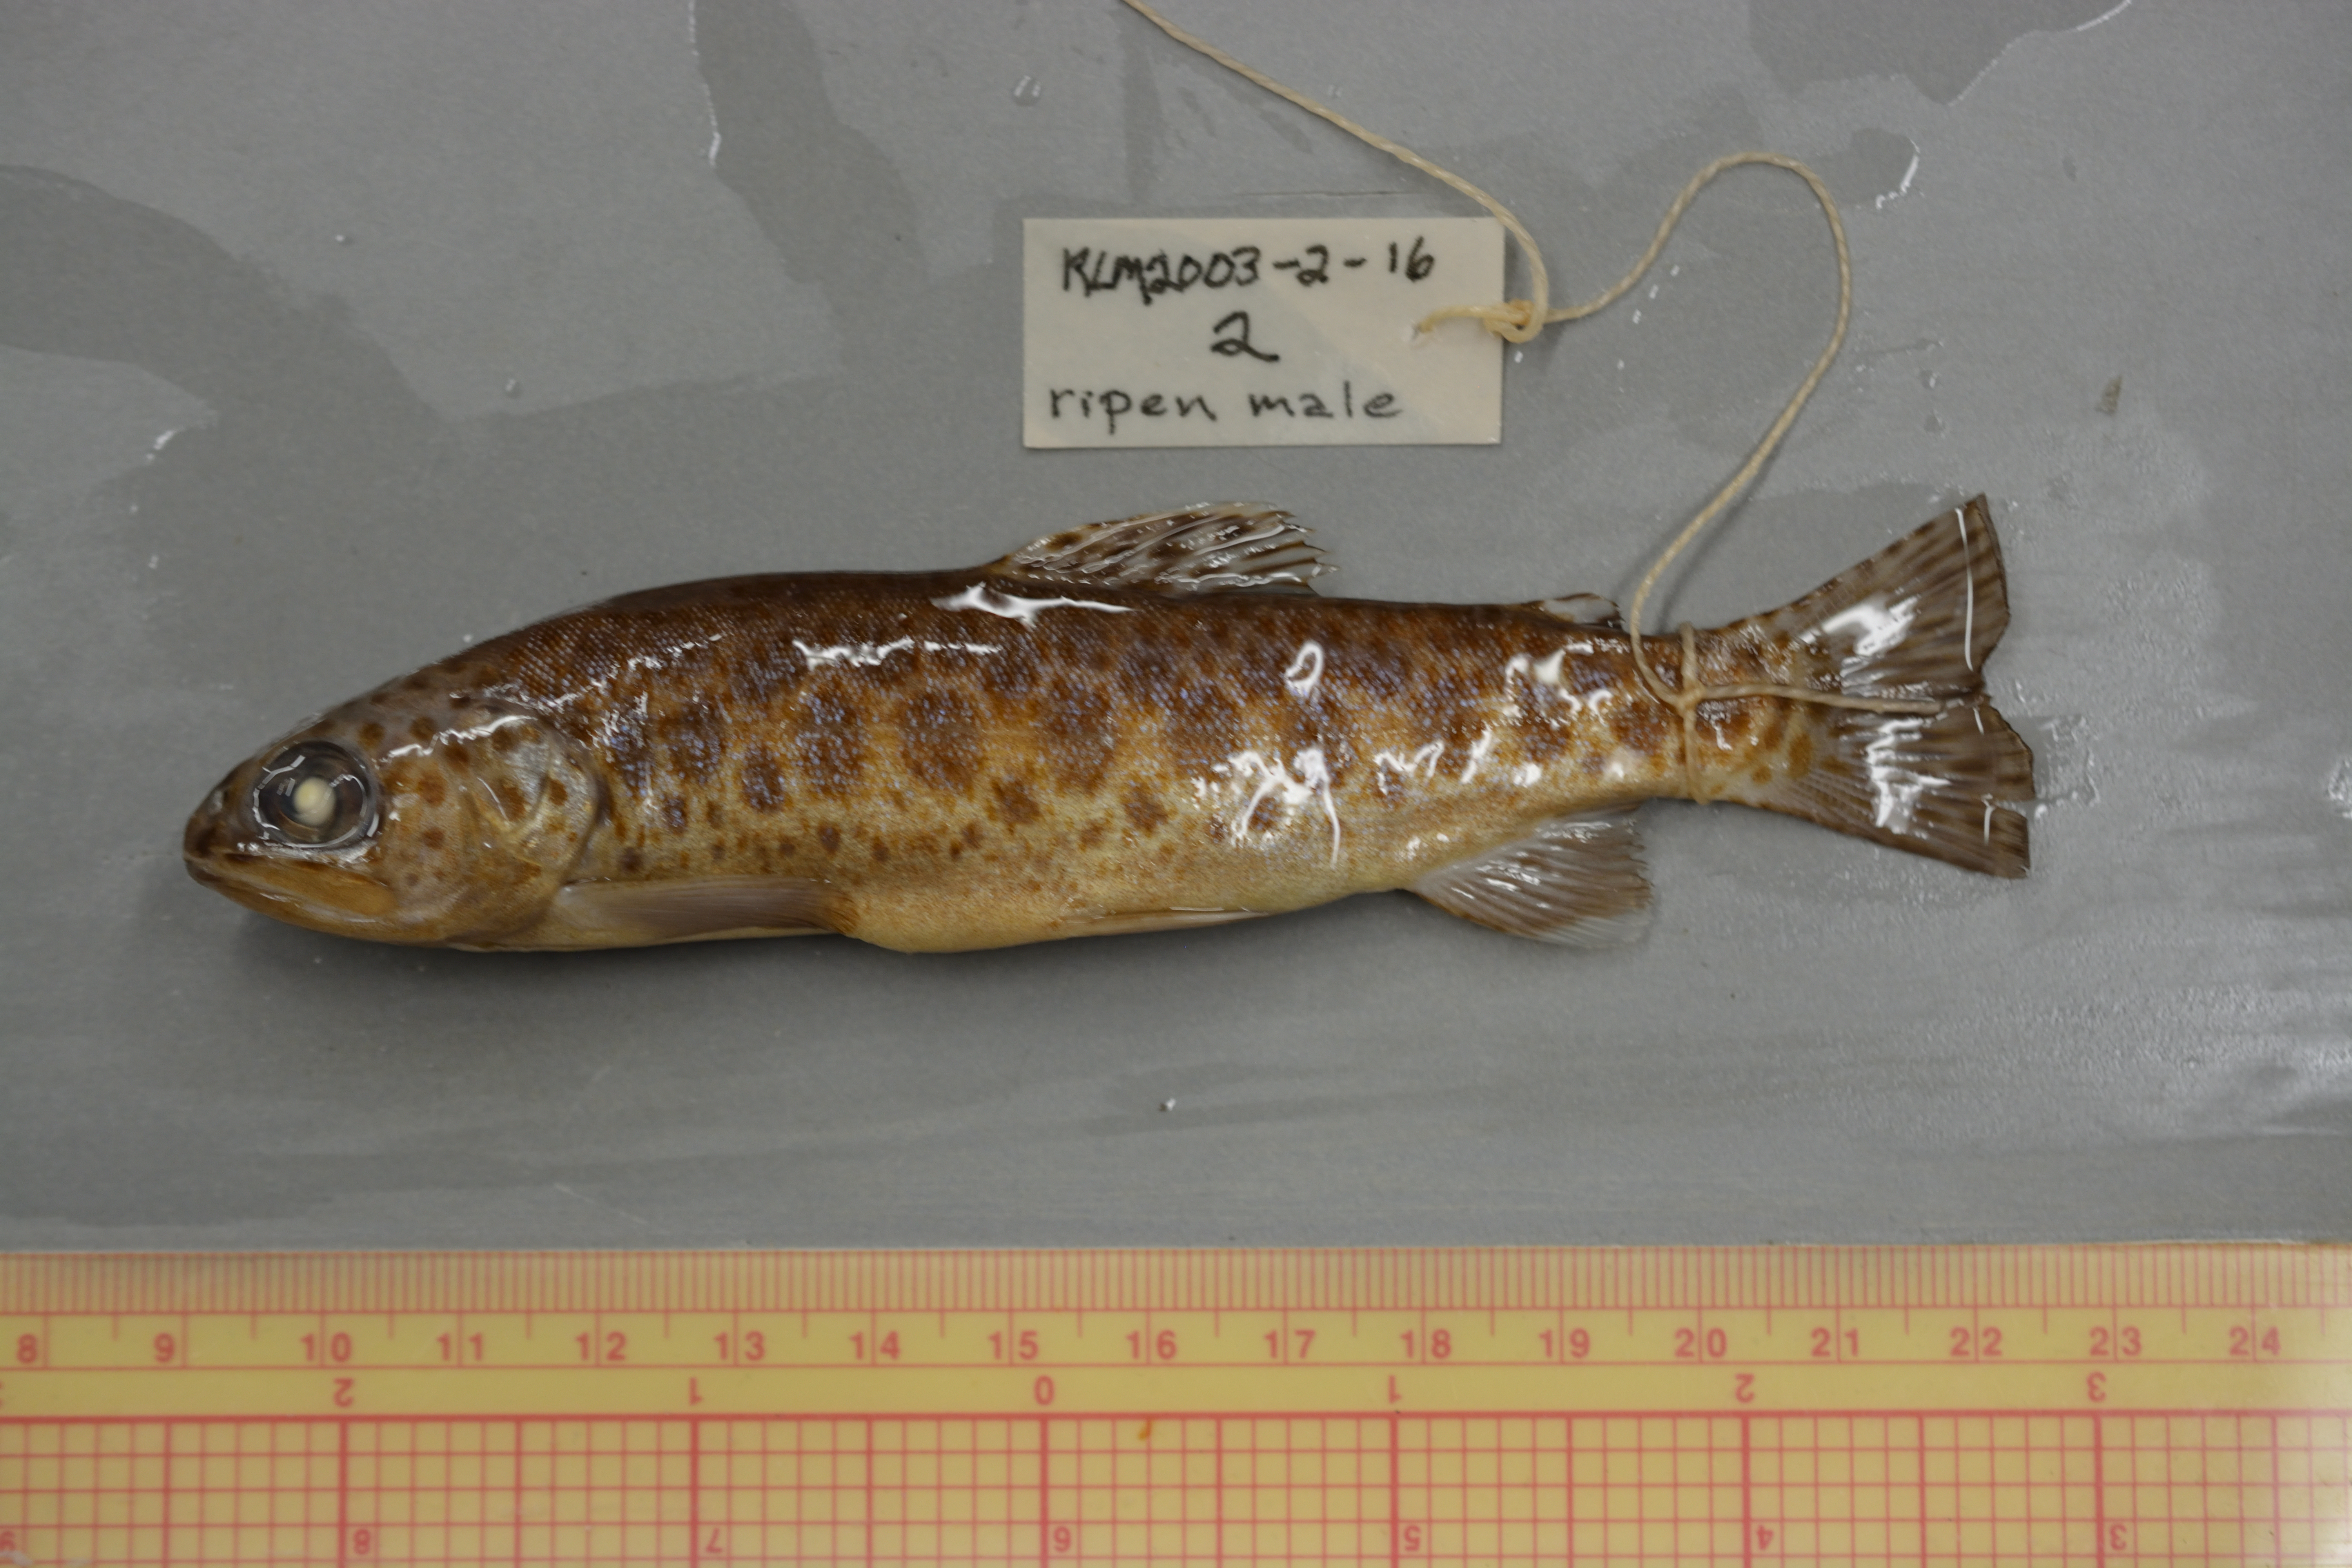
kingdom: Animalia
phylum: Chordata
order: Salmoniformes
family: Salmonidae
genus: Oncorhynchus
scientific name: Oncorhynchus mykiss
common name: Rainbow trout
